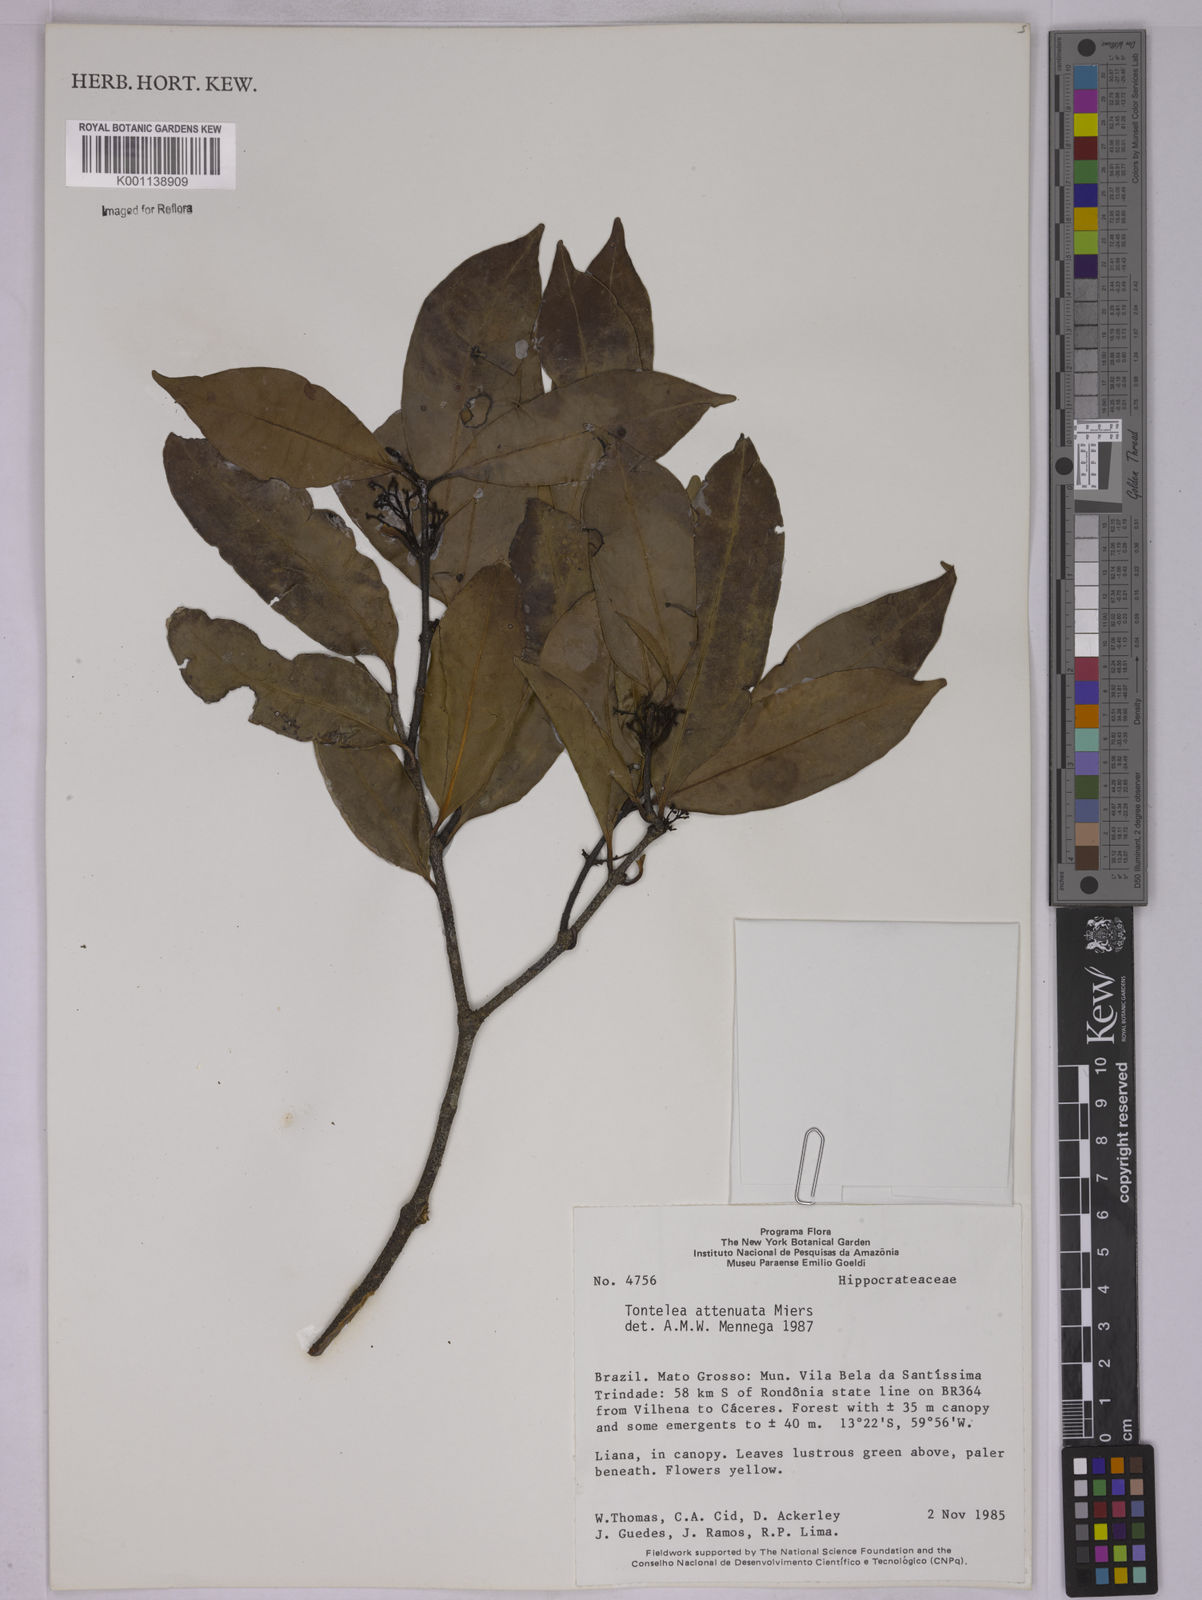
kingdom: Plantae
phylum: Tracheophyta
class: Magnoliopsida
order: Celastrales
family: Celastraceae
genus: Tontelea
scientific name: Tontelea attenuata
